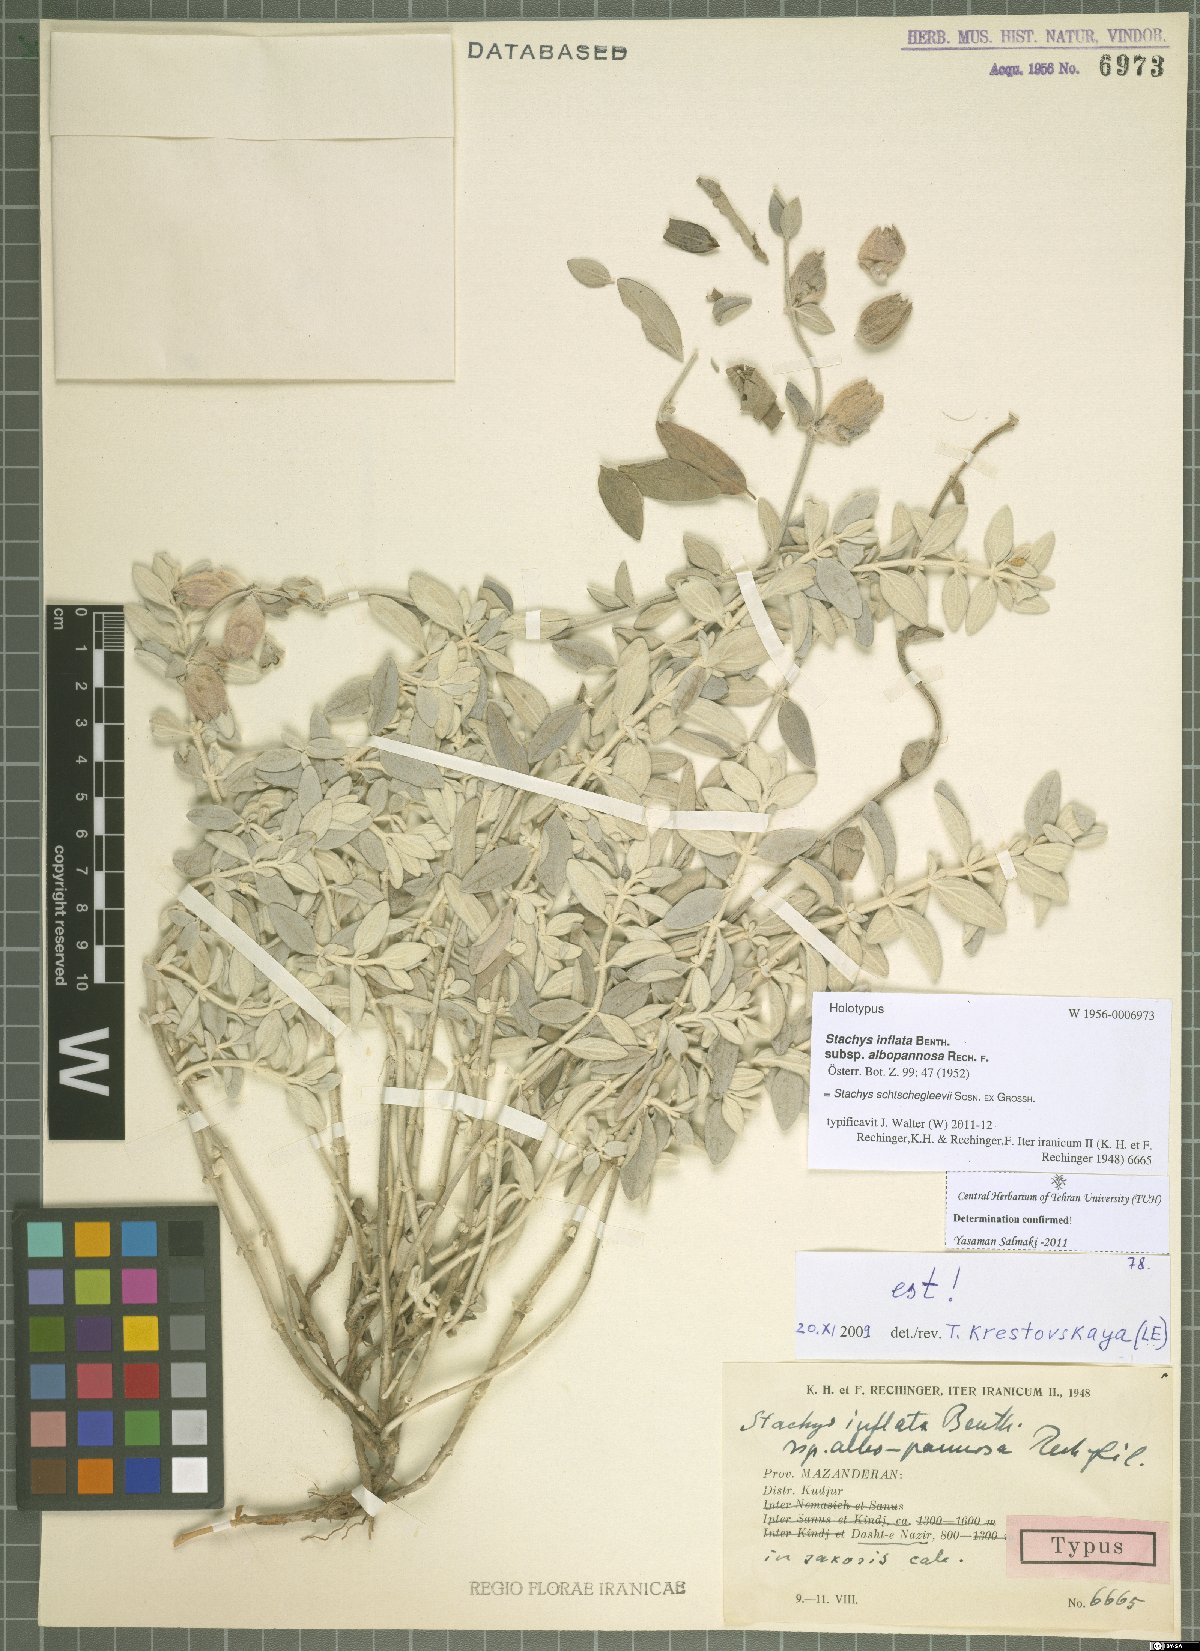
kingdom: Plantae
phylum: Tracheophyta
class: Magnoliopsida
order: Lamiales
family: Lamiaceae
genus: Stachys
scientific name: Stachys inflata
